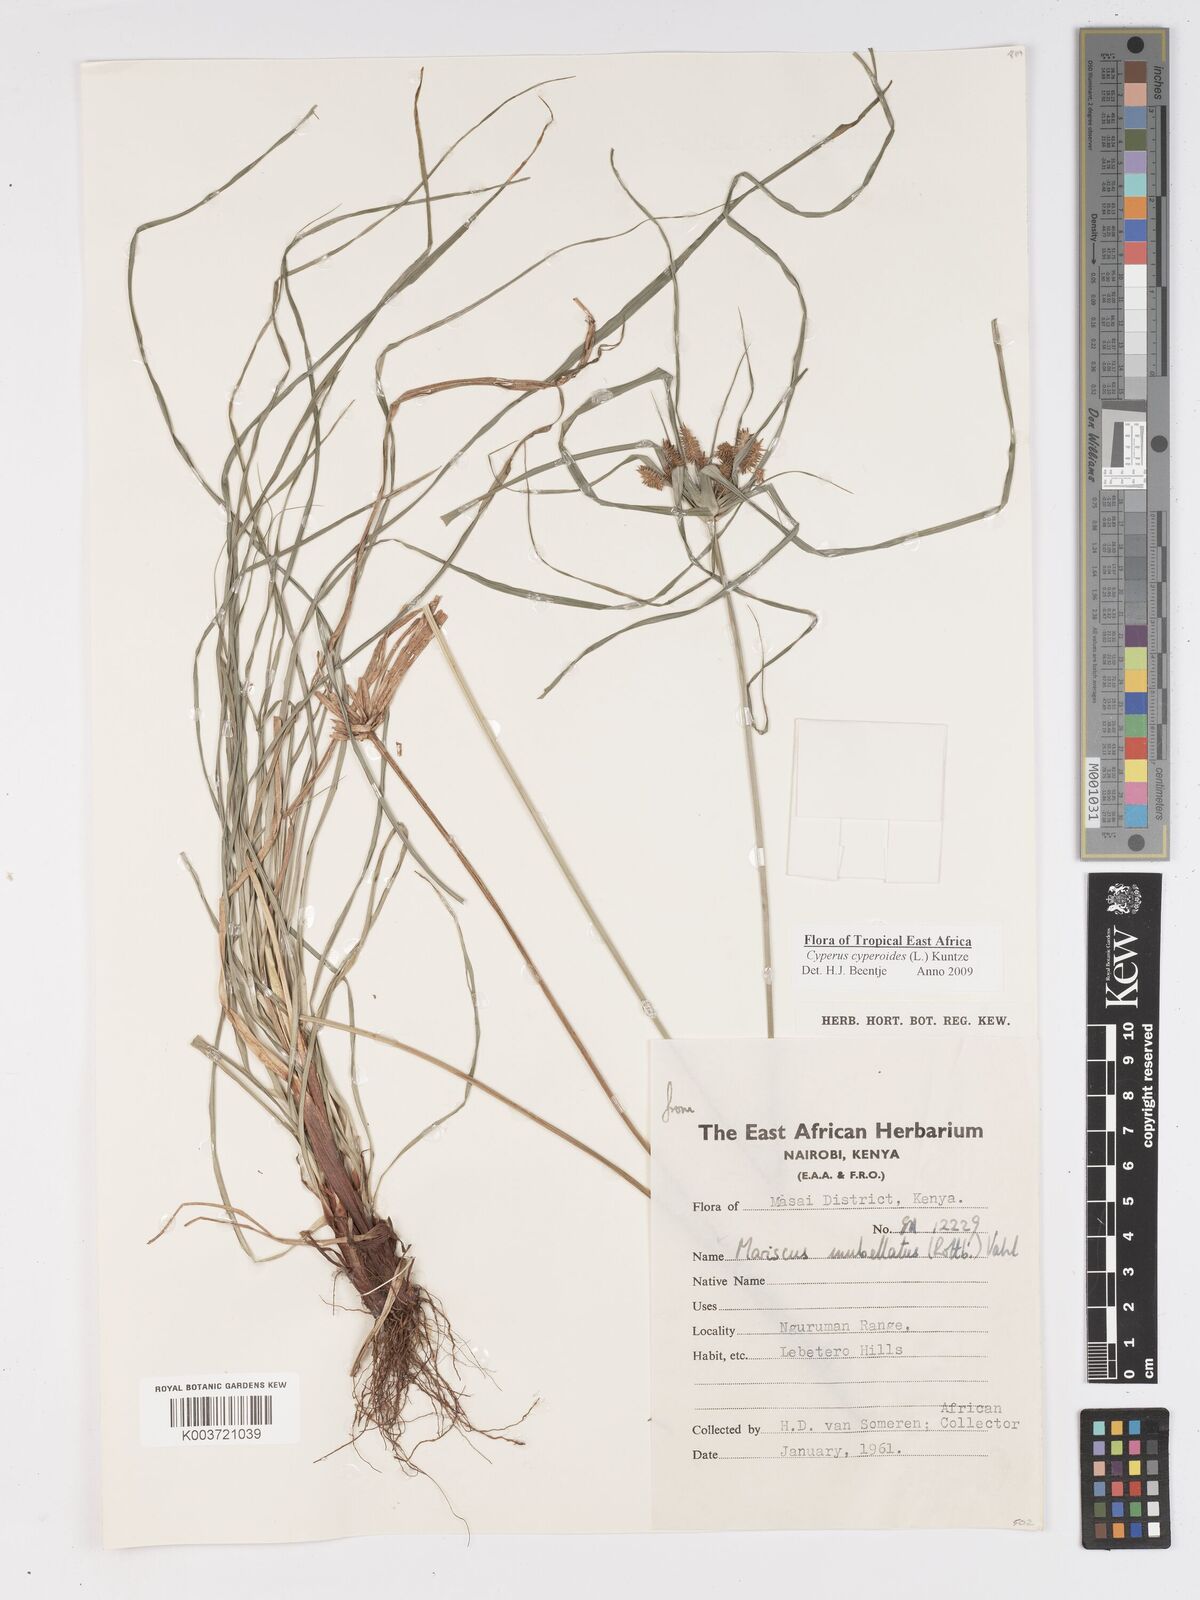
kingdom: Plantae
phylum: Tracheophyta
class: Liliopsida
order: Poales
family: Cyperaceae
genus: Cyperus
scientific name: Cyperus cyperoides
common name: Pacific island flat sedge
